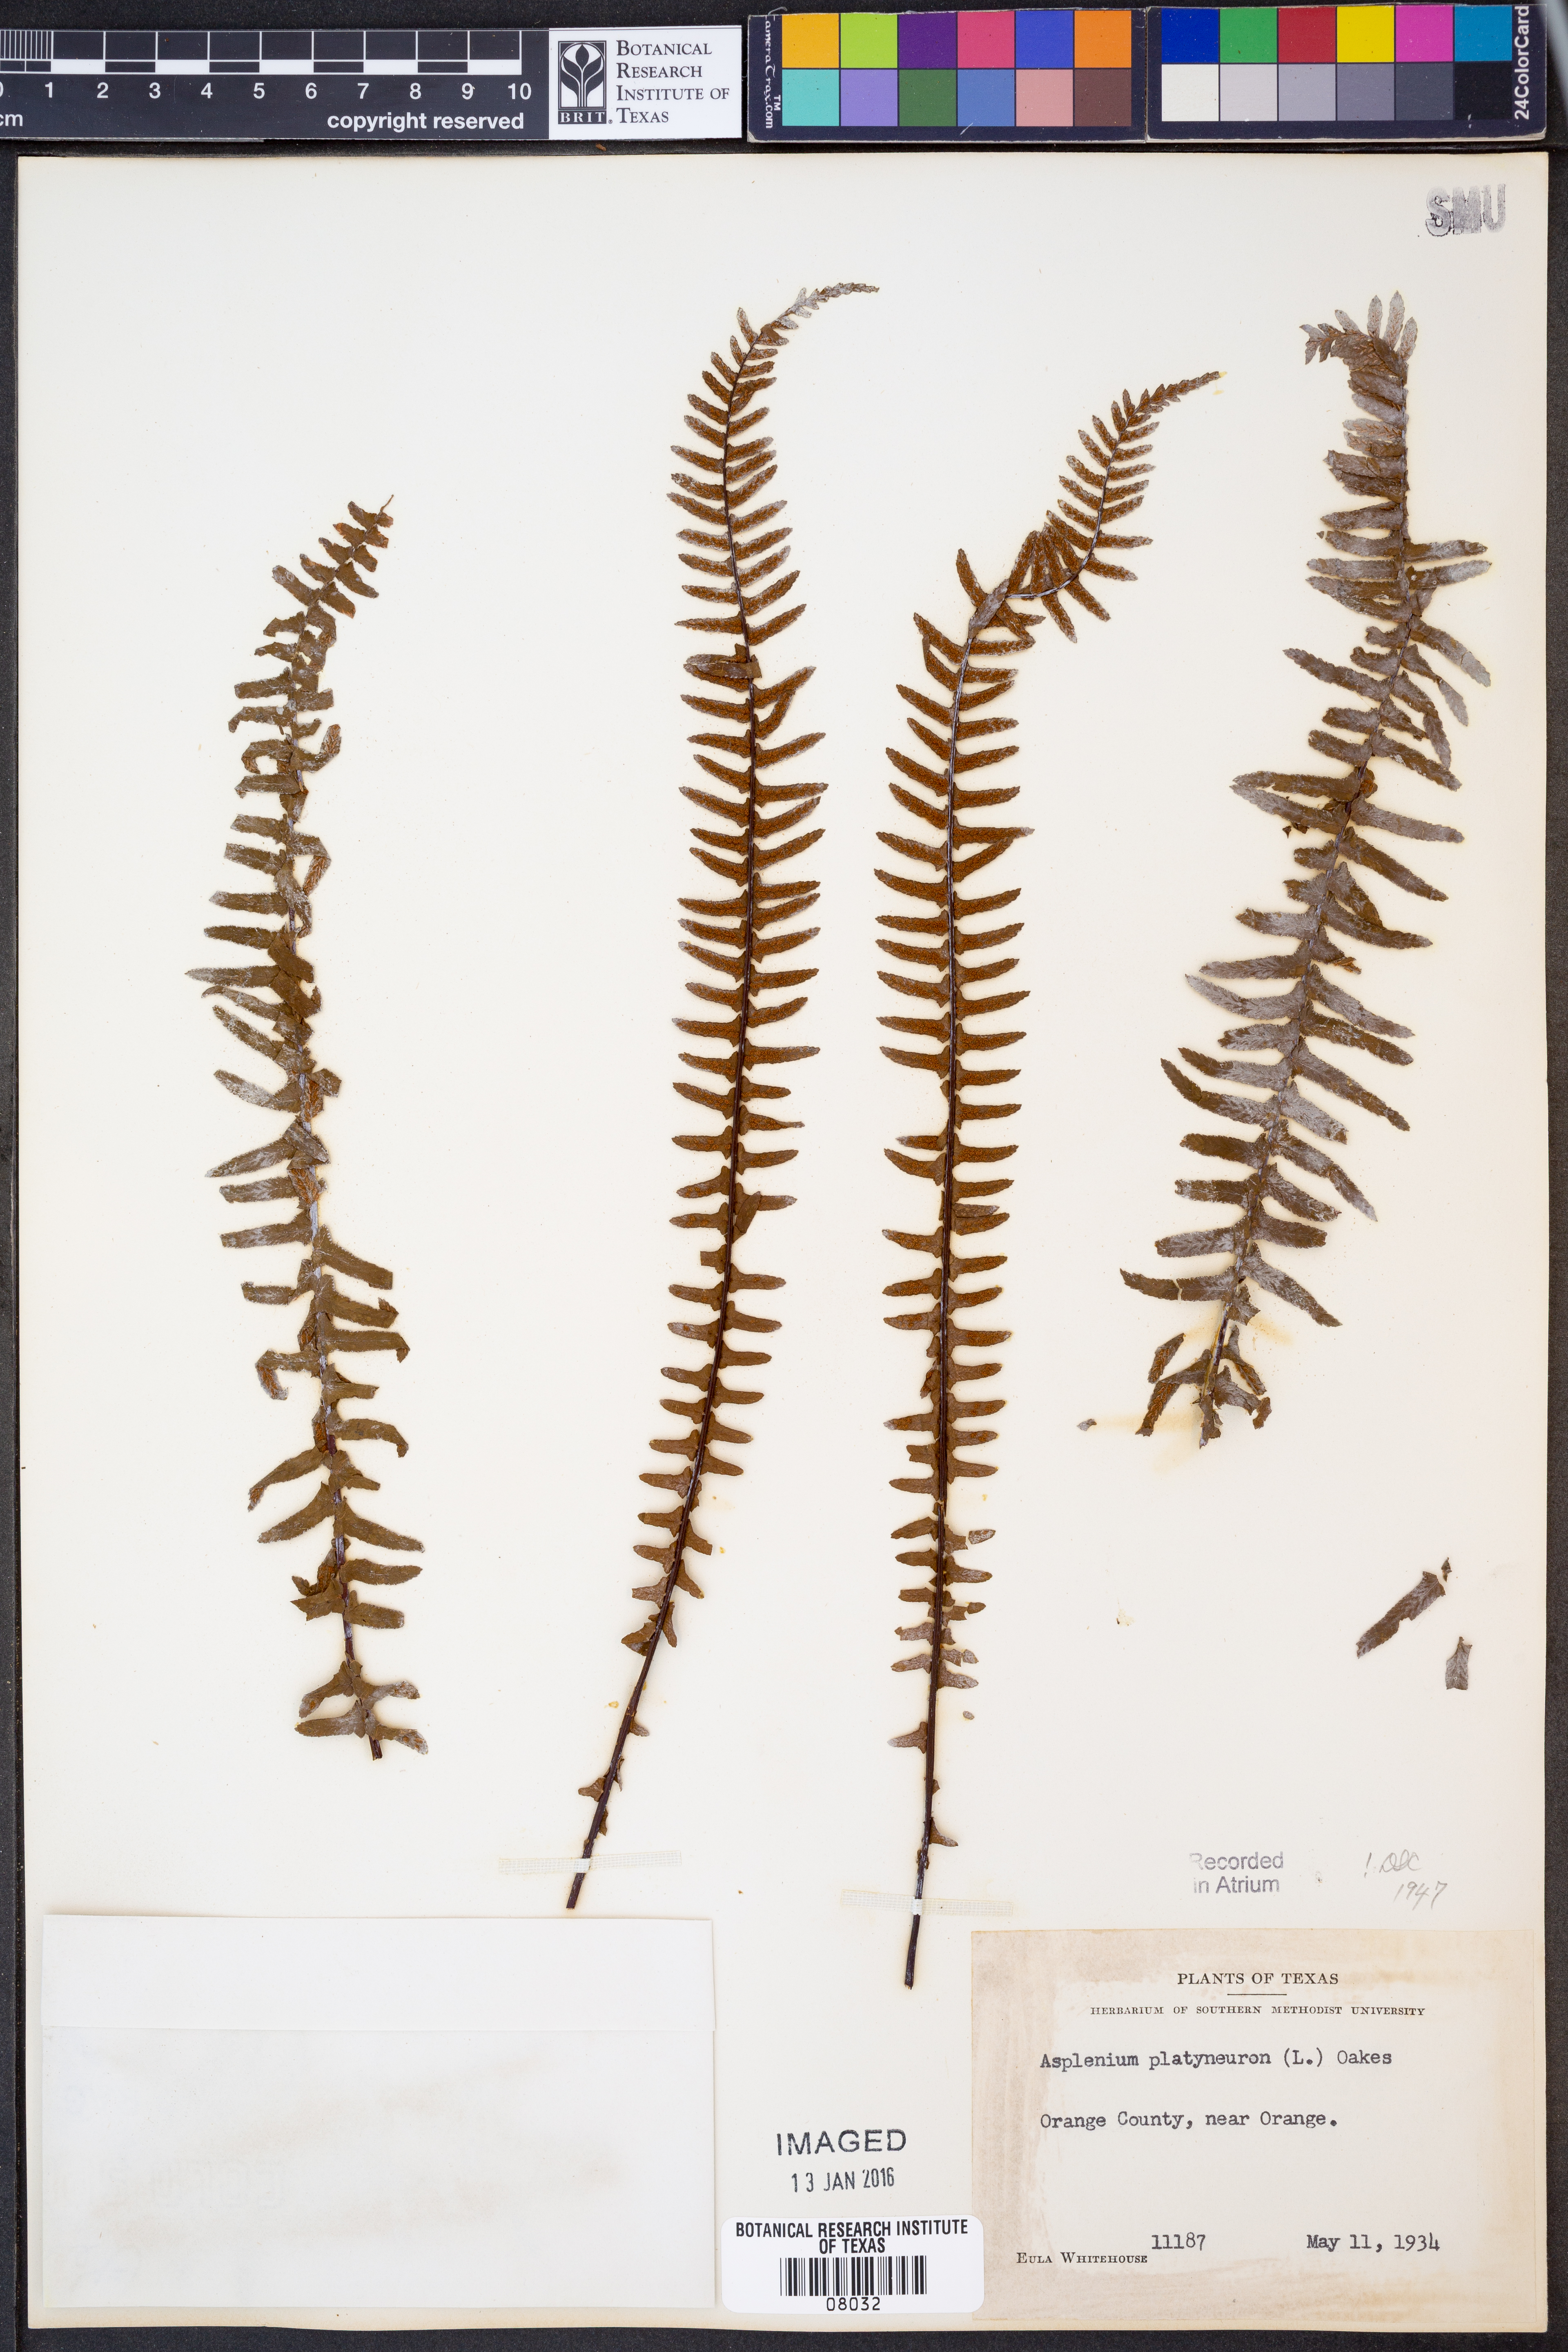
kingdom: Plantae
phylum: Tracheophyta
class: Polypodiopsida
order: Polypodiales
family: Aspleniaceae
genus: Asplenium
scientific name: Asplenium platyneuron
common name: Ebony spleenwort
